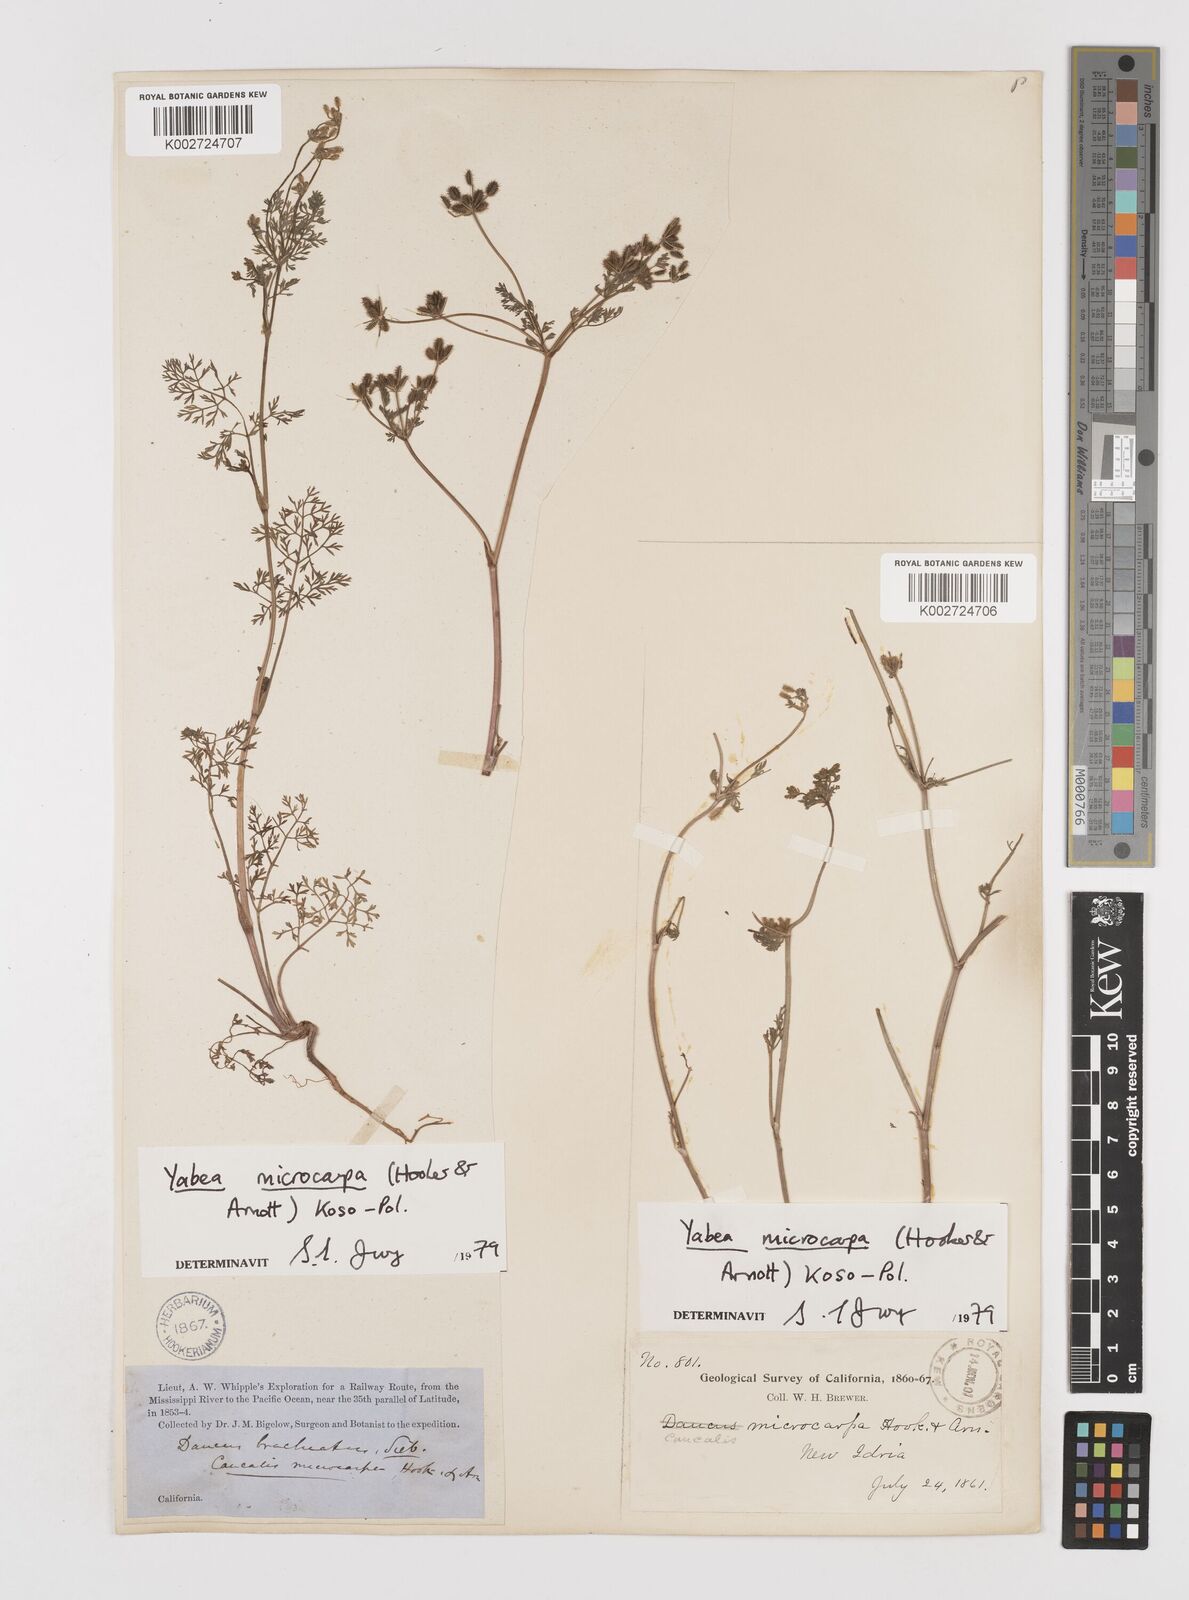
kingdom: Plantae
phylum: Tracheophyta
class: Magnoliopsida
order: Apiales
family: Apiaceae
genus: Yabea
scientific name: Yabea microcarpa
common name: False carrot
